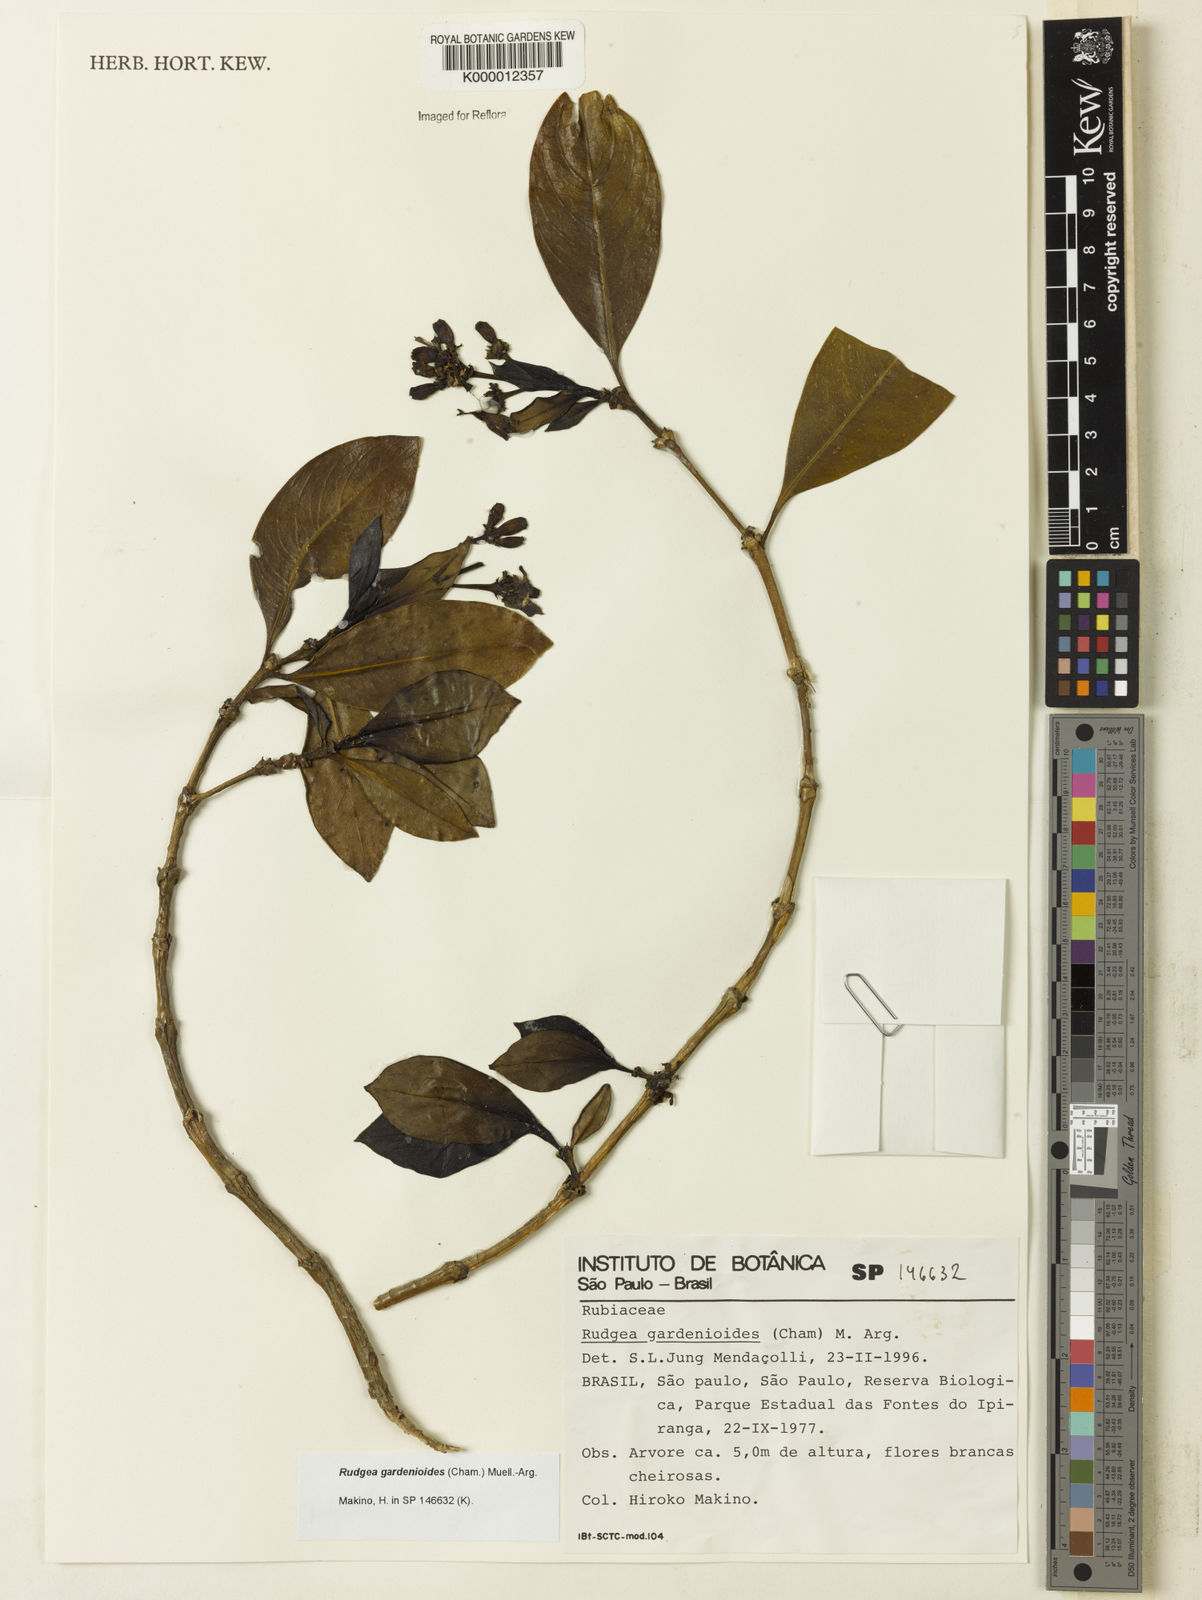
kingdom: Plantae
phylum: Tracheophyta
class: Magnoliopsida
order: Gentianales
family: Rubiaceae
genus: Rudgea
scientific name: Rudgea gardenioides
